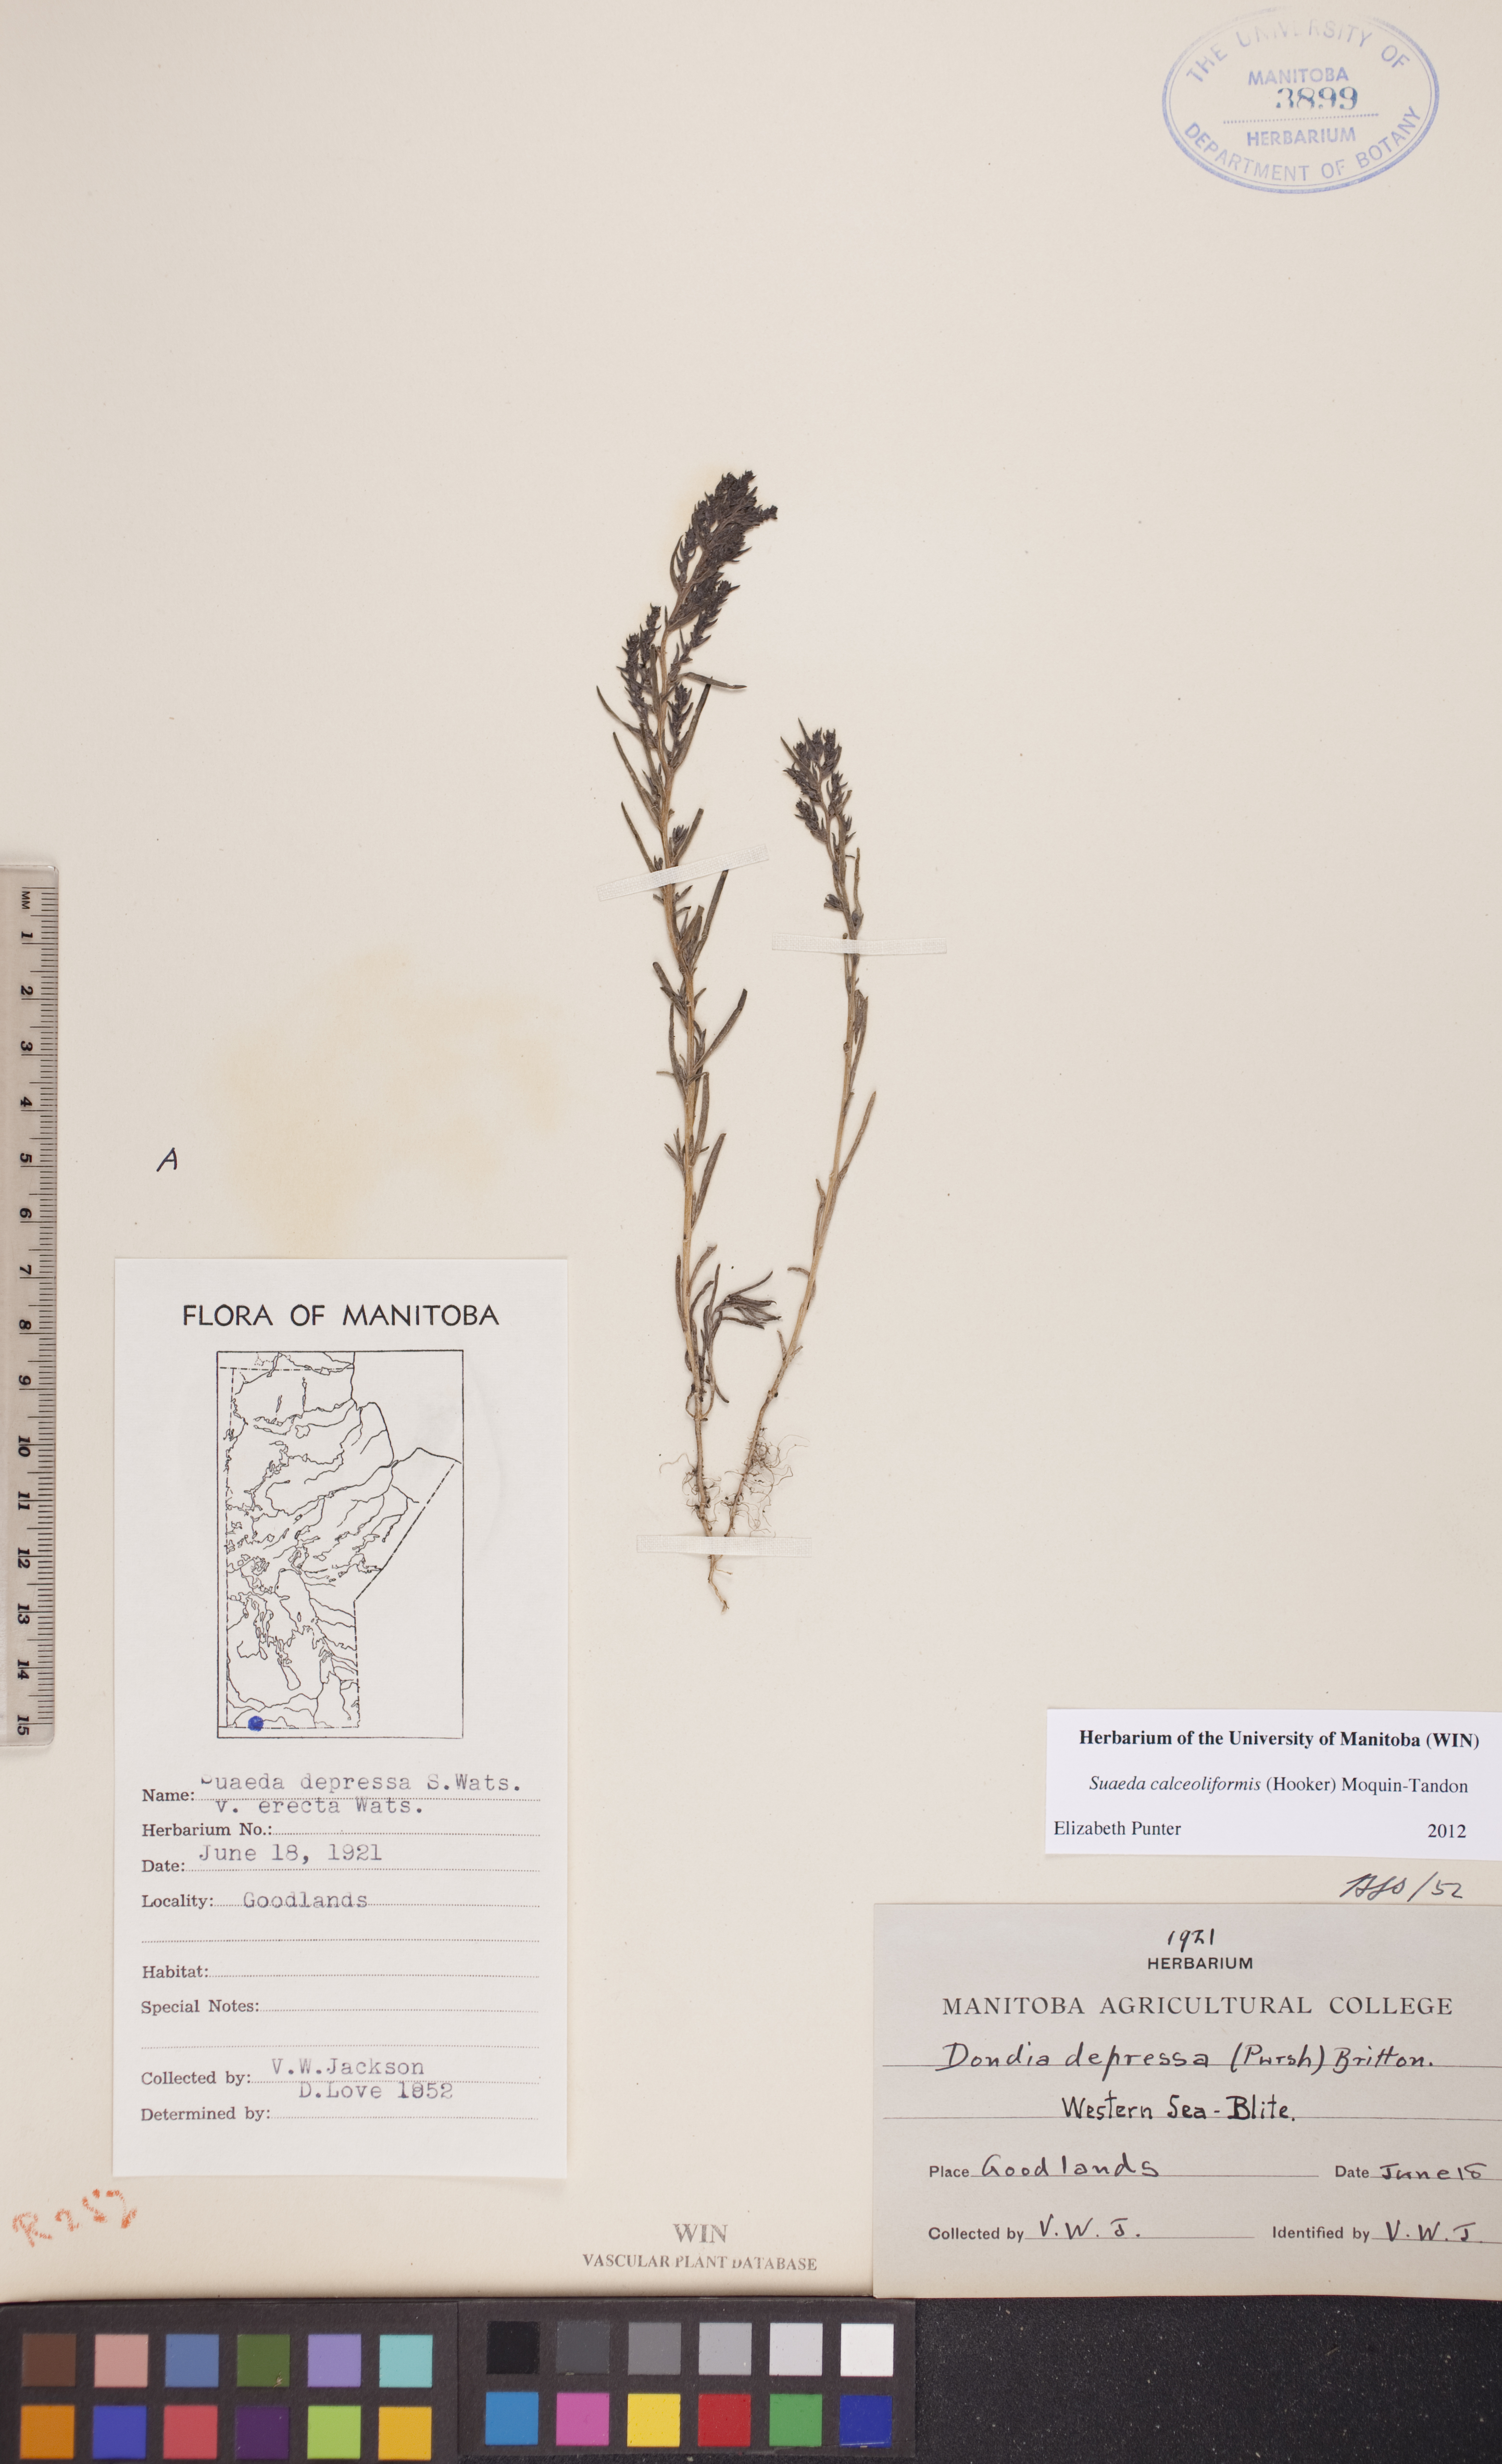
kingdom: Plantae
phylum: Tracheophyta
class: Magnoliopsida
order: Caryophyllales
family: Amaranthaceae
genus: Suaeda
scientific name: Suaeda calceoliformis
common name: Pursh's seepweed
